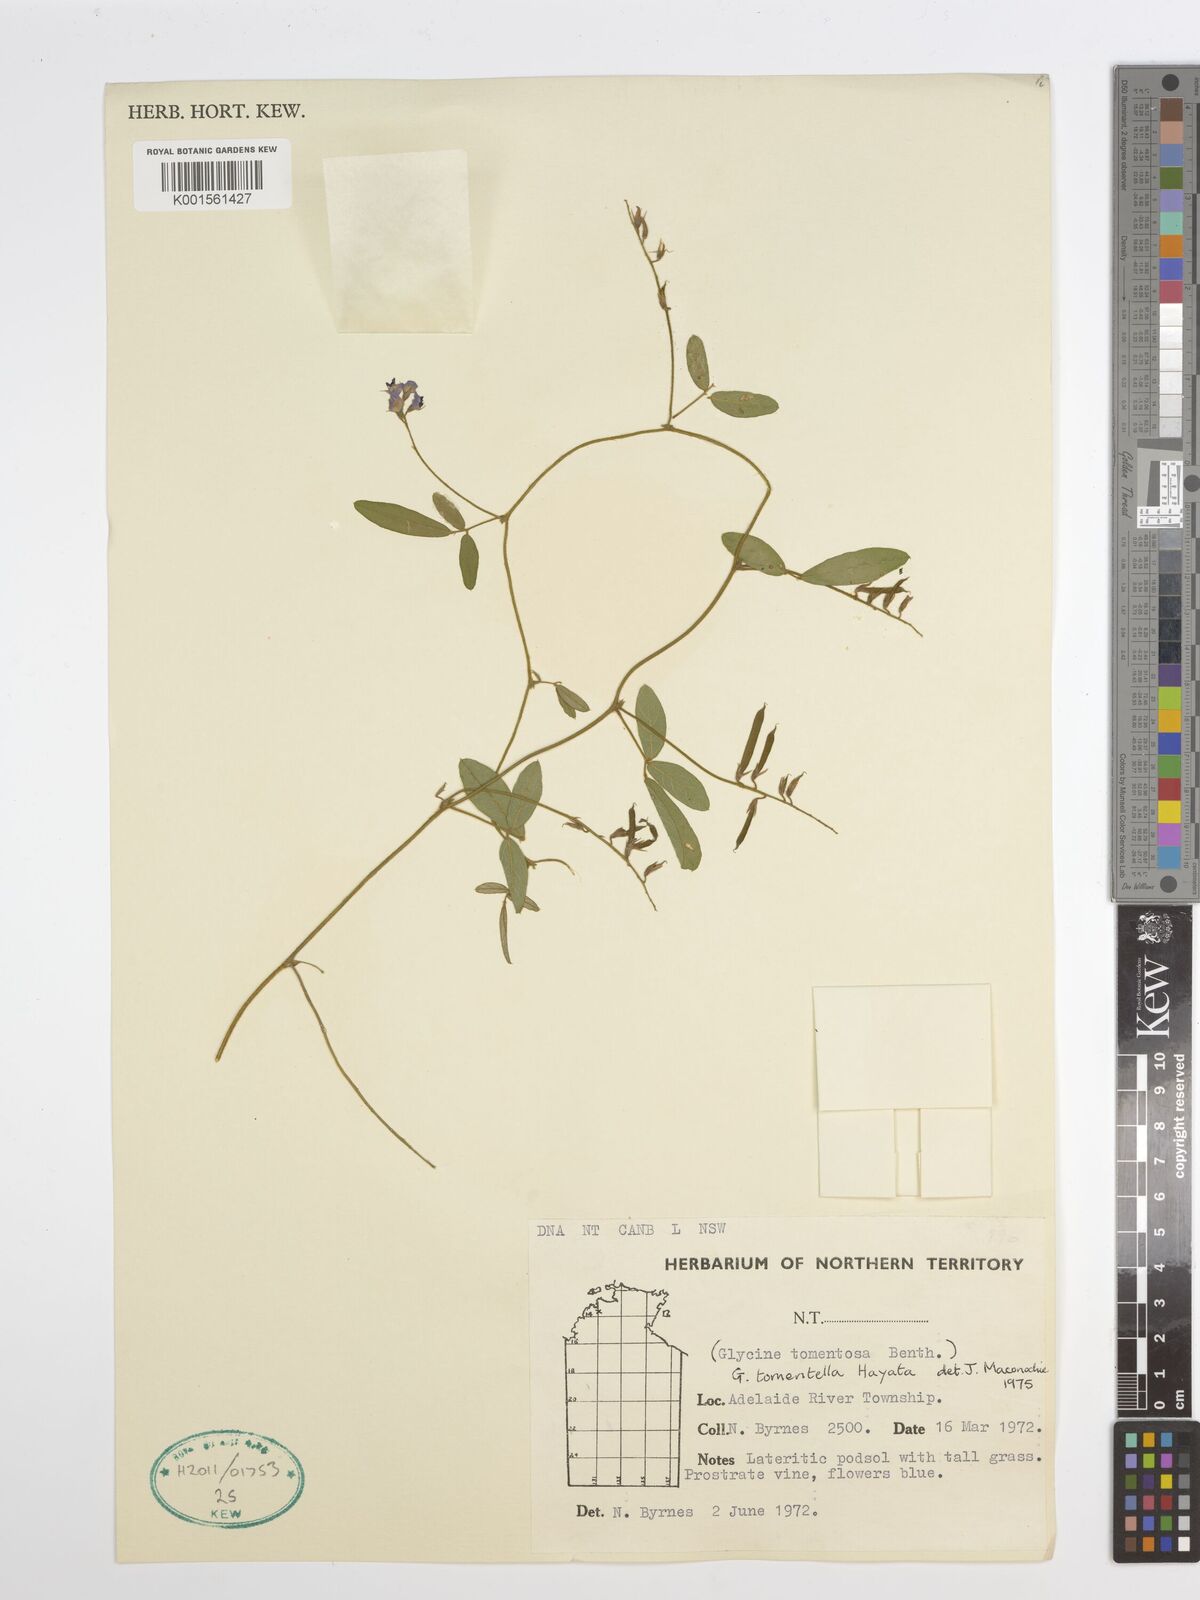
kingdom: Plantae
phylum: Tracheophyta
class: Magnoliopsida
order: Fabales
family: Fabaceae
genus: Glycine
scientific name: Glycine tomentella
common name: Hairy glycine
